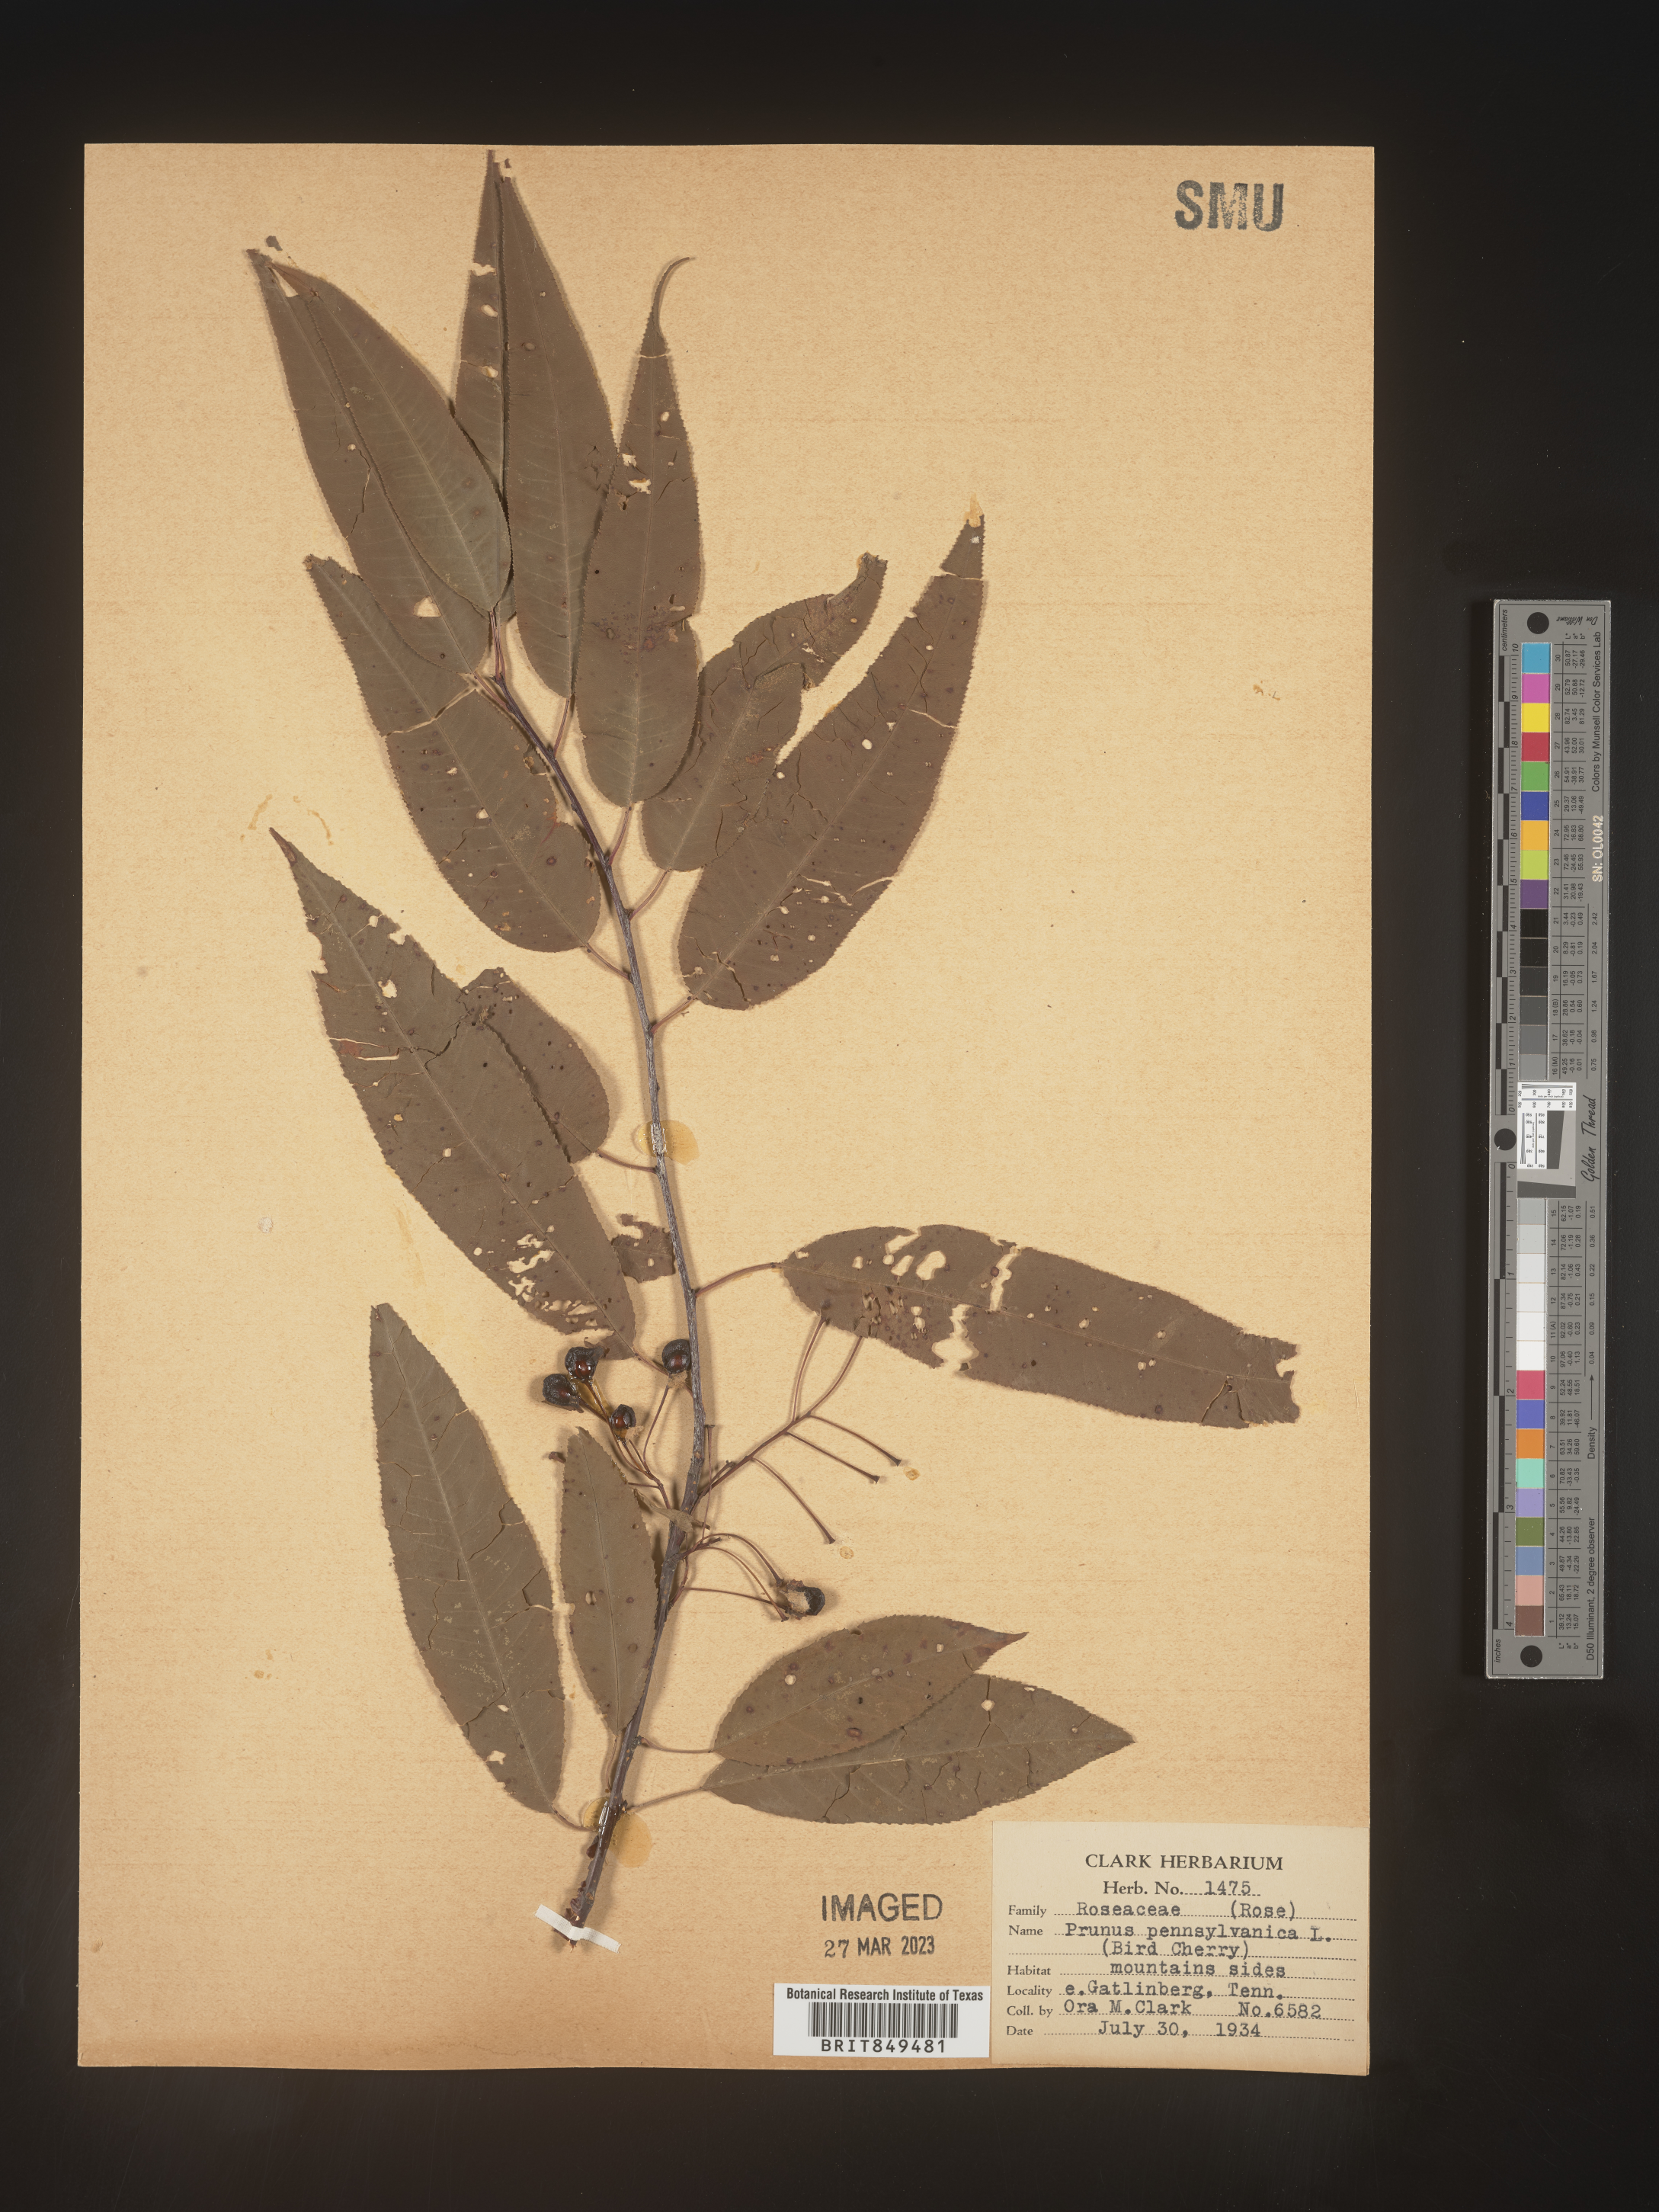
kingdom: Plantae
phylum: Tracheophyta
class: Magnoliopsida
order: Rosales
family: Rosaceae
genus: Prunus
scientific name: Prunus pensylvanica
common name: Pin cherry
